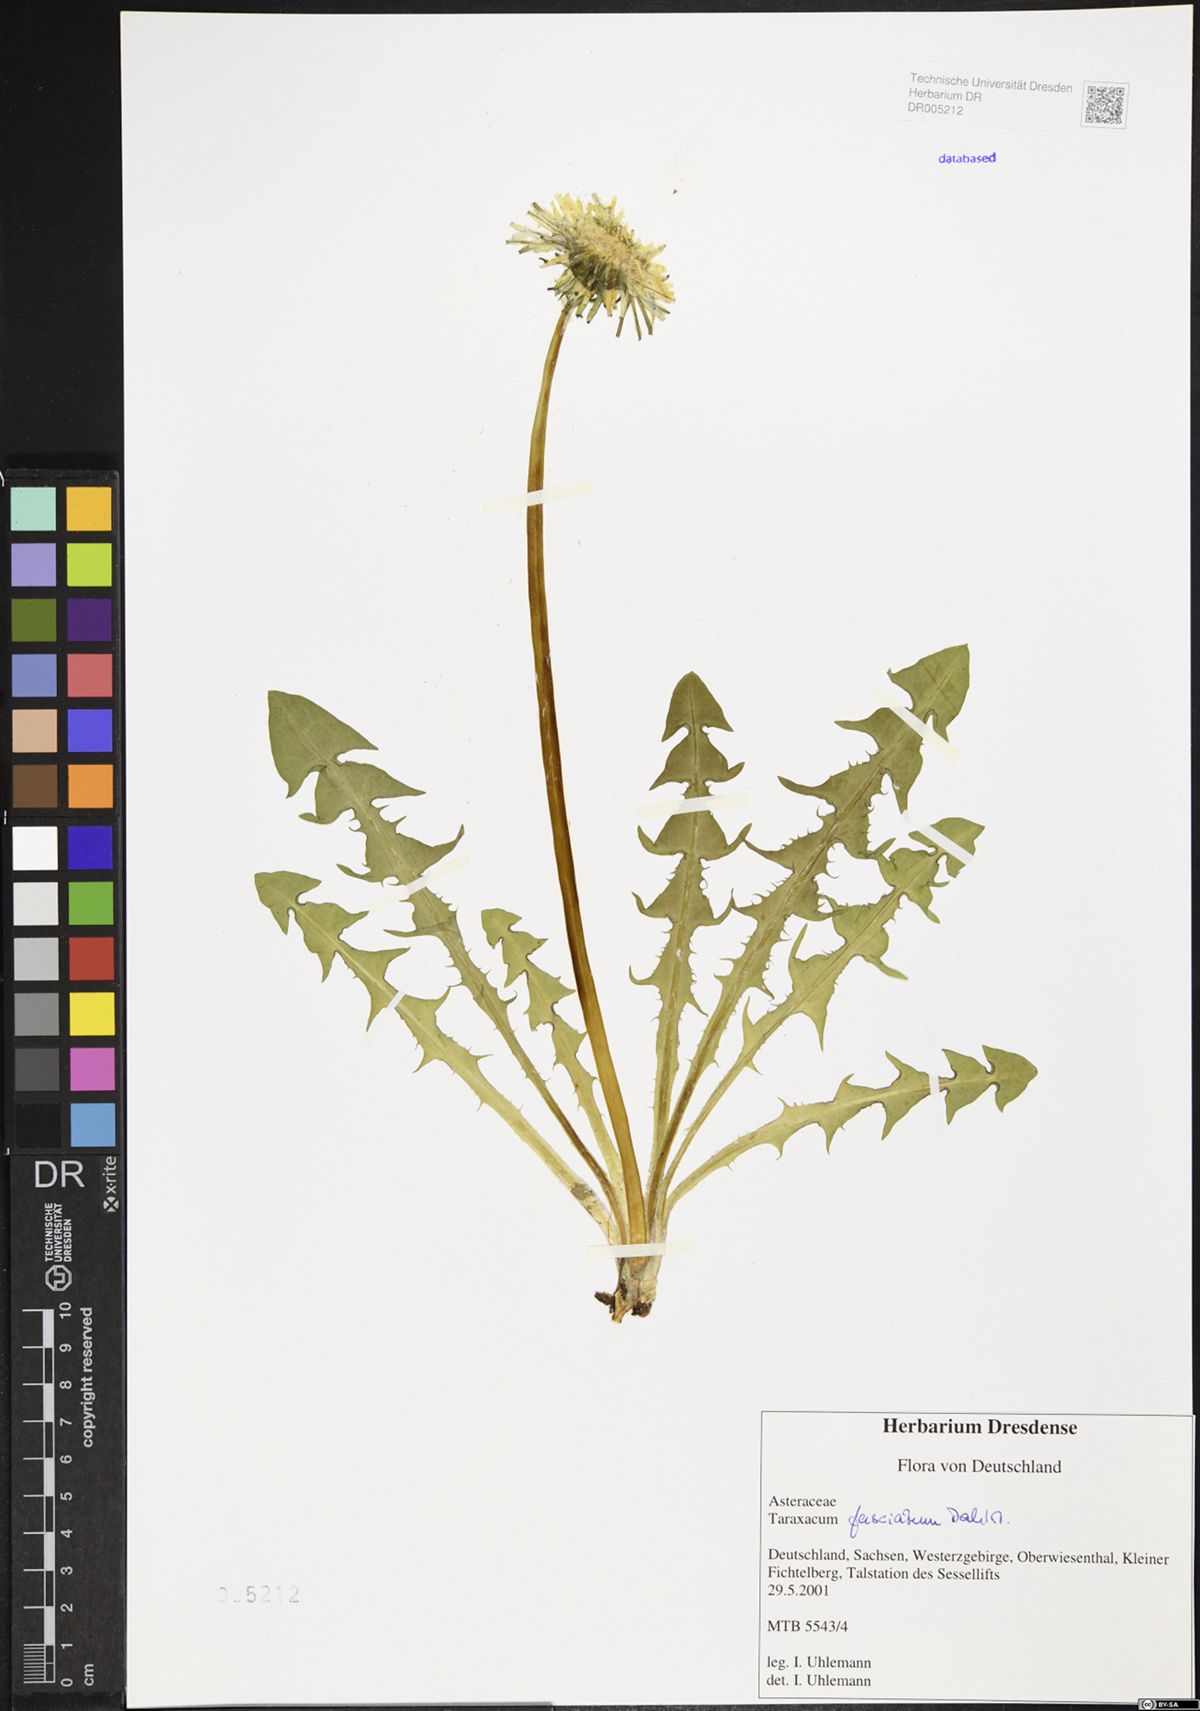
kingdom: Plantae
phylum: Tracheophyta
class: Magnoliopsida
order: Asterales
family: Asteraceae
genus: Taraxacum
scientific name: Taraxacum fasciatum
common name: Dense-bracted dandelion
